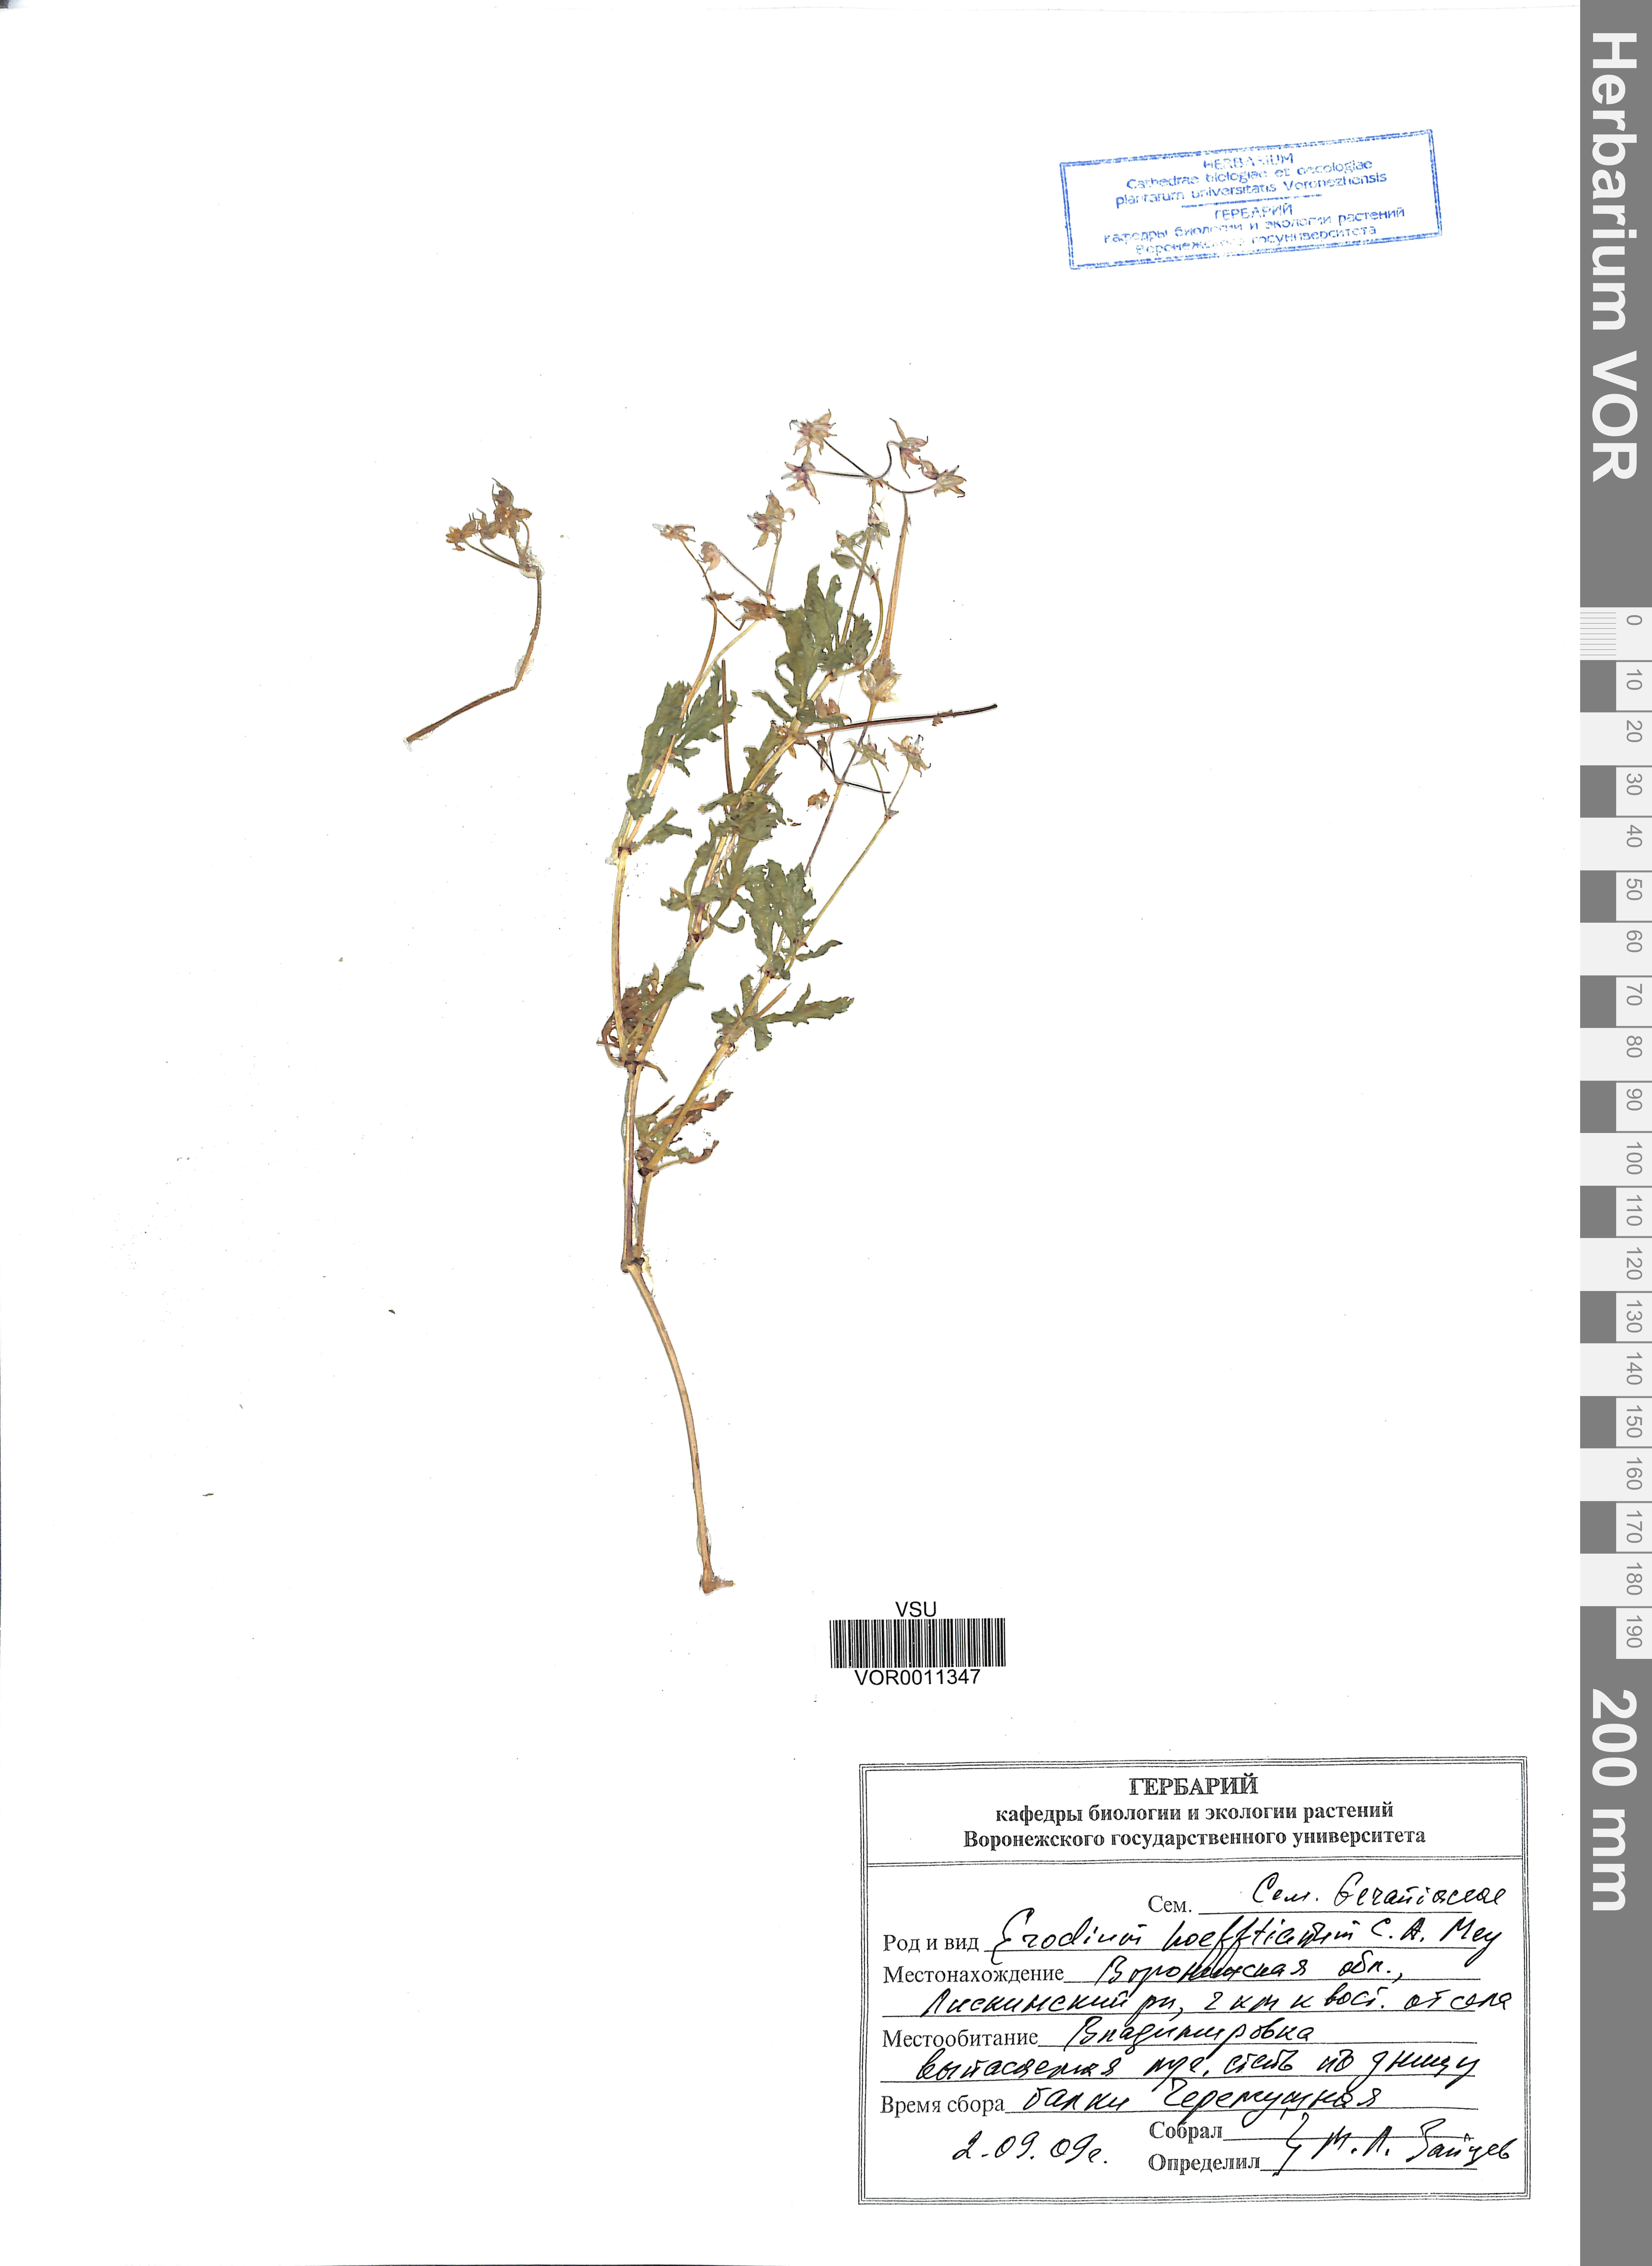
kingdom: Plantae
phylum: Tracheophyta
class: Magnoliopsida
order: Geraniales
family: Geraniaceae
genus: Erodium
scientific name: Erodium hoefftianum
